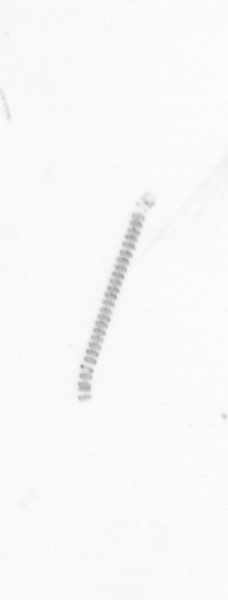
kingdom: Chromista
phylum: Ochrophyta
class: Bacillariophyceae
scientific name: Bacillariophyceae
